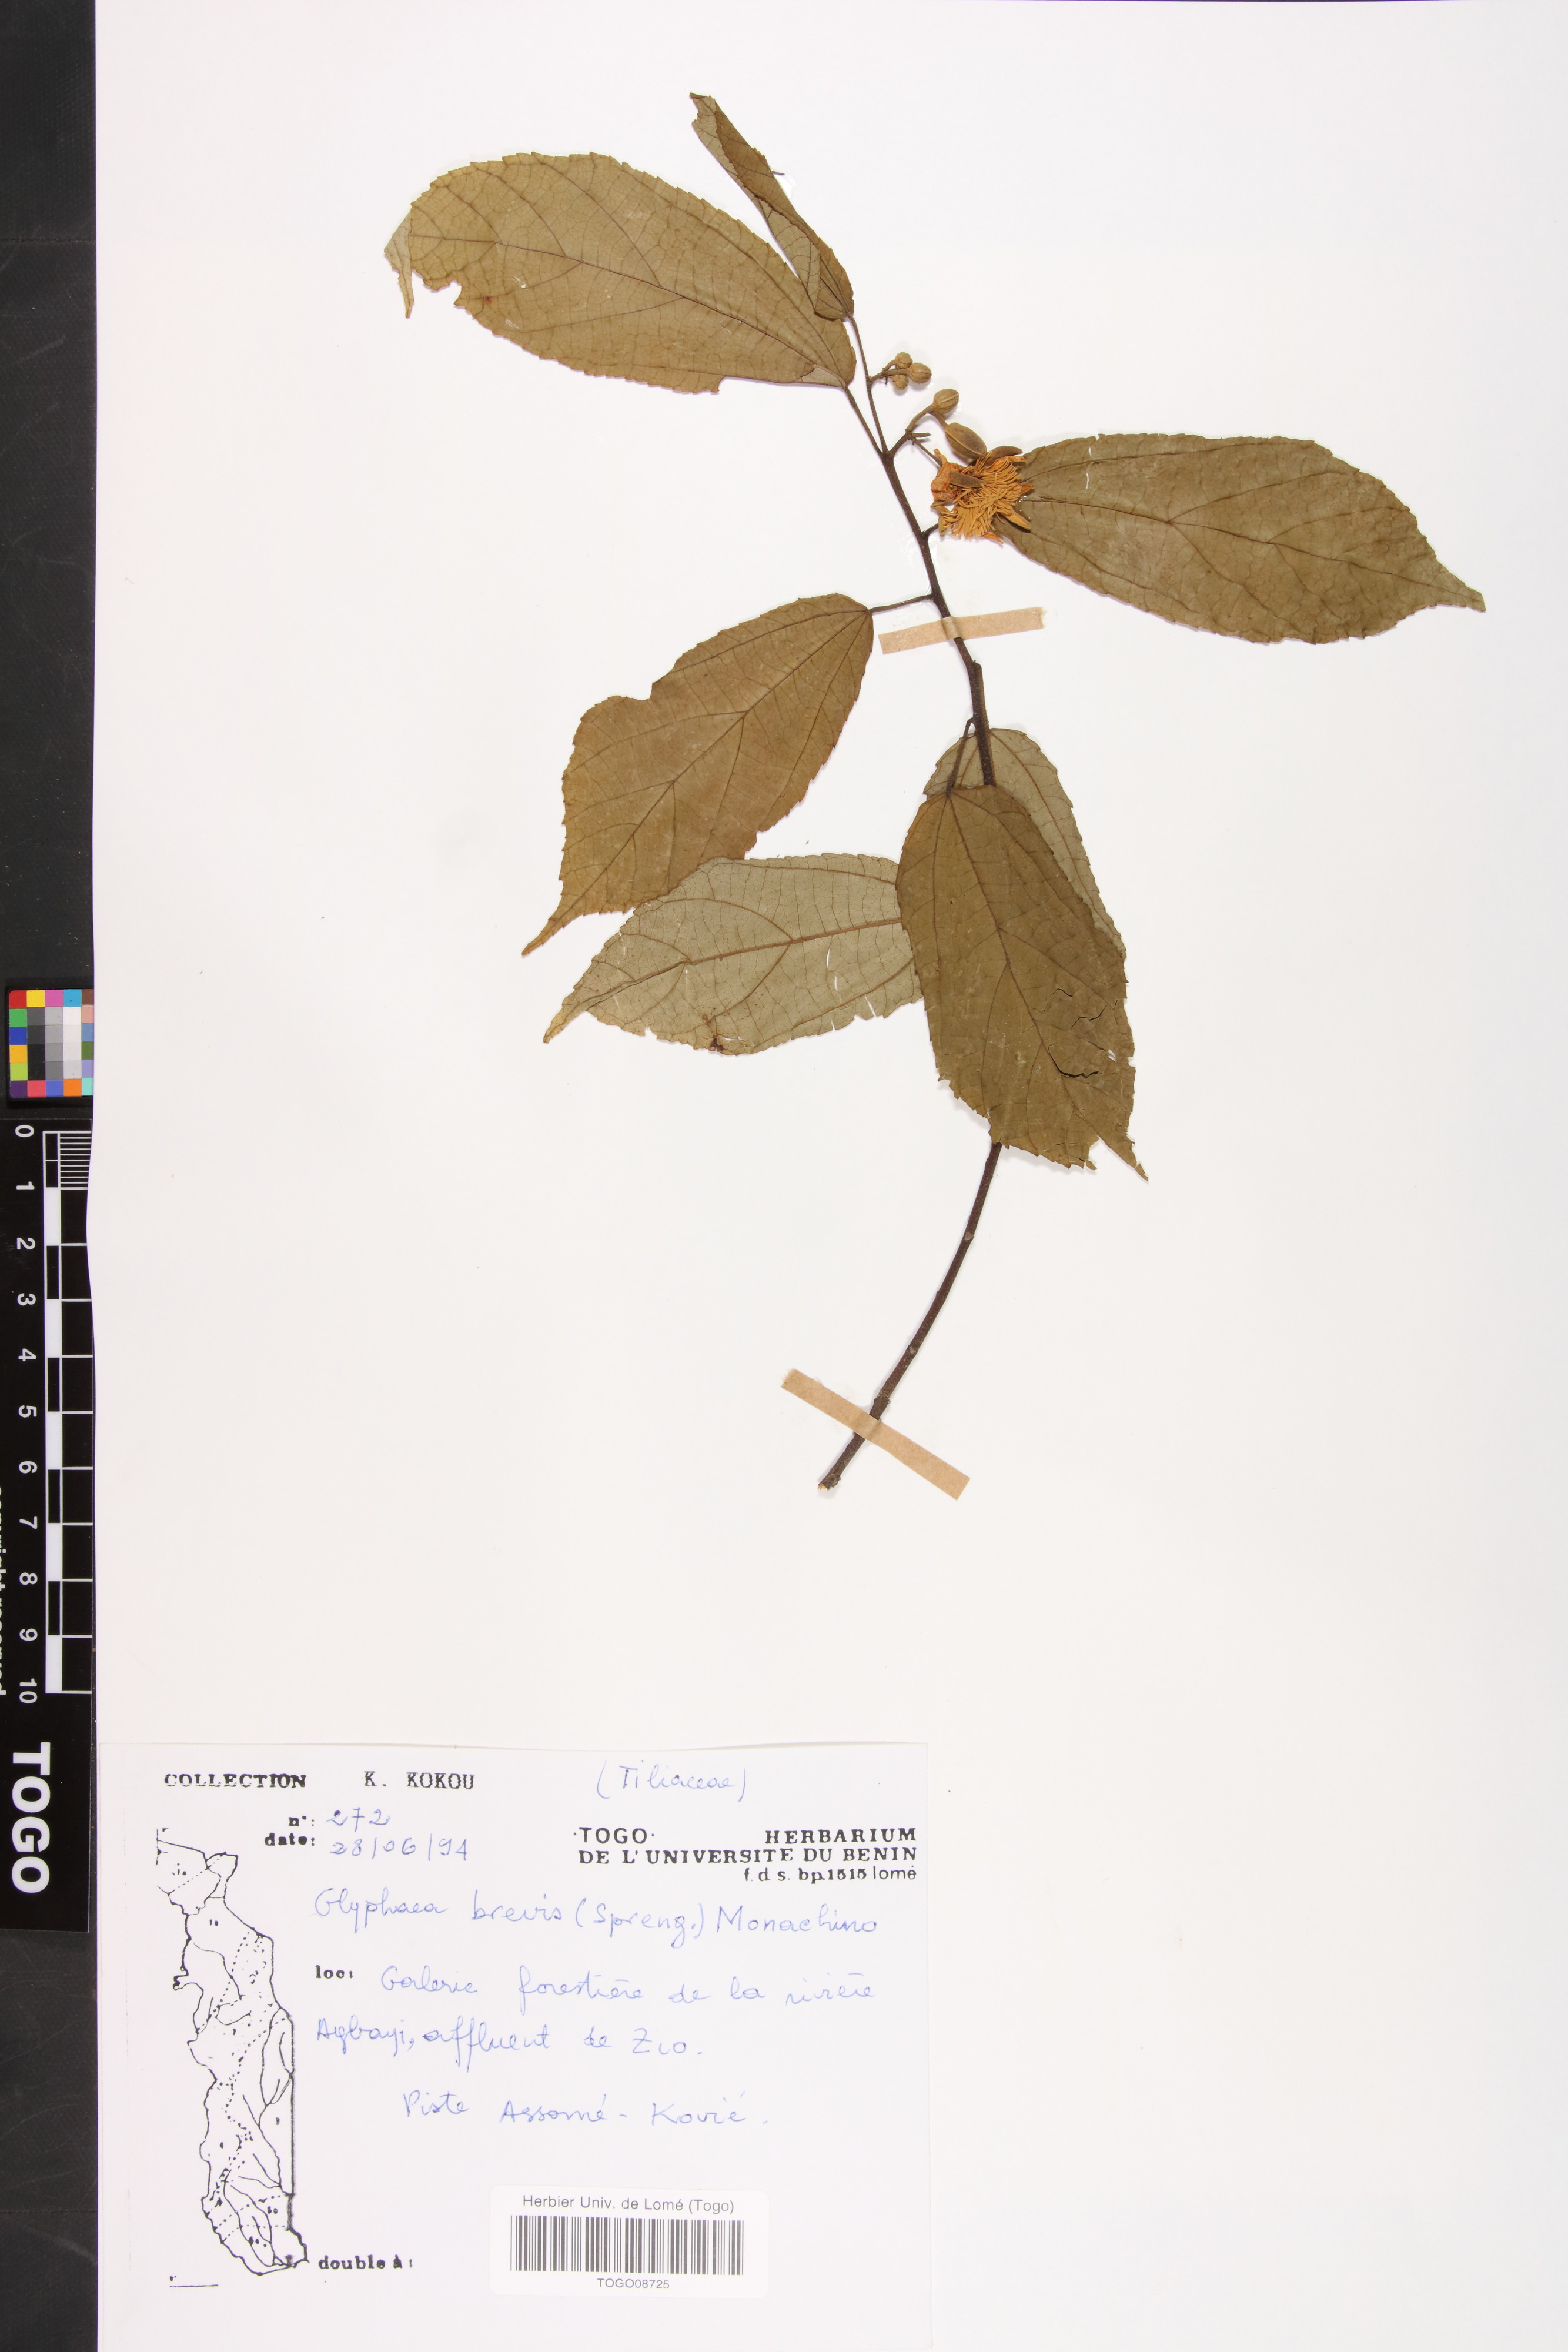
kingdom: Plantae
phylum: Tracheophyta
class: Magnoliopsida
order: Malvales
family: Malvaceae
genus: Glyphaea
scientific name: Glyphaea brevis
